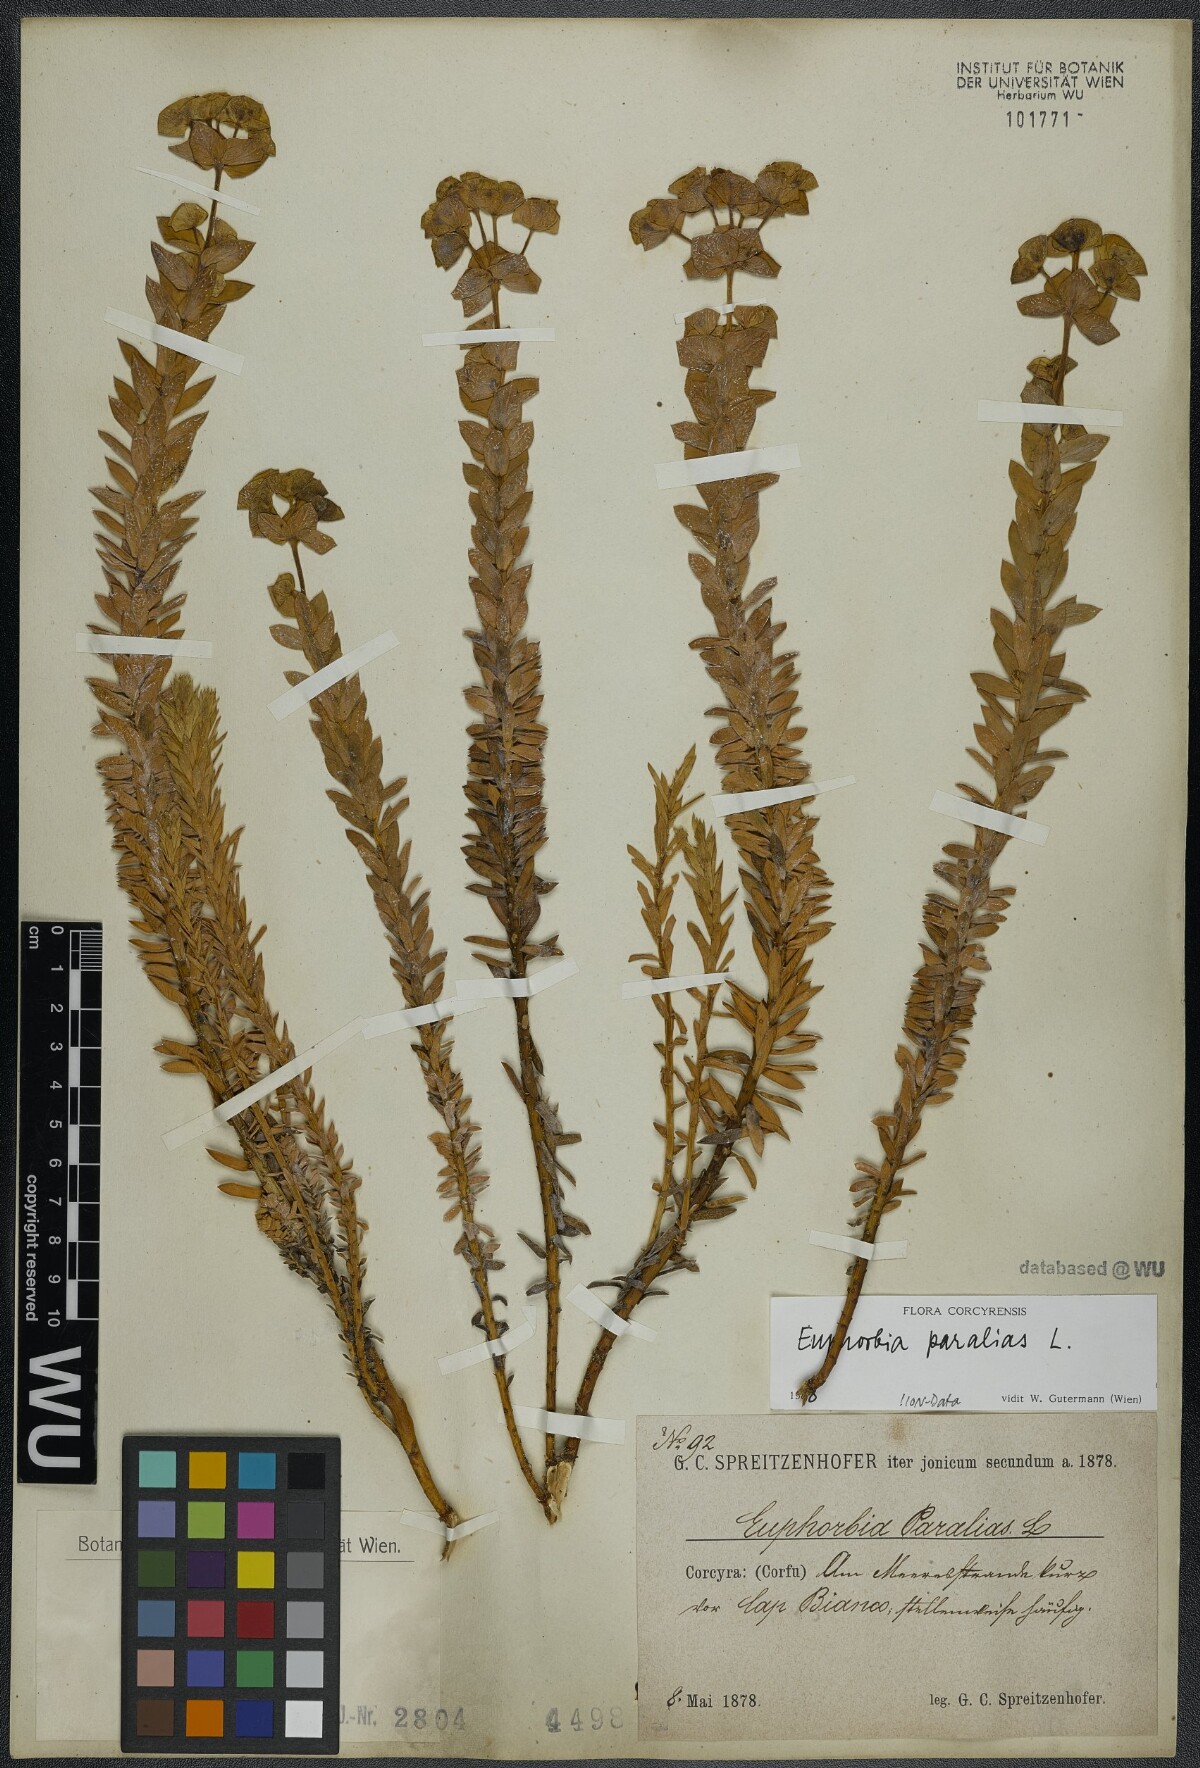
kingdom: Plantae
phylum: Tracheophyta
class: Magnoliopsida
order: Malpighiales
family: Euphorbiaceae
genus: Euphorbia
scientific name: Euphorbia paralias
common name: Sea spurge
